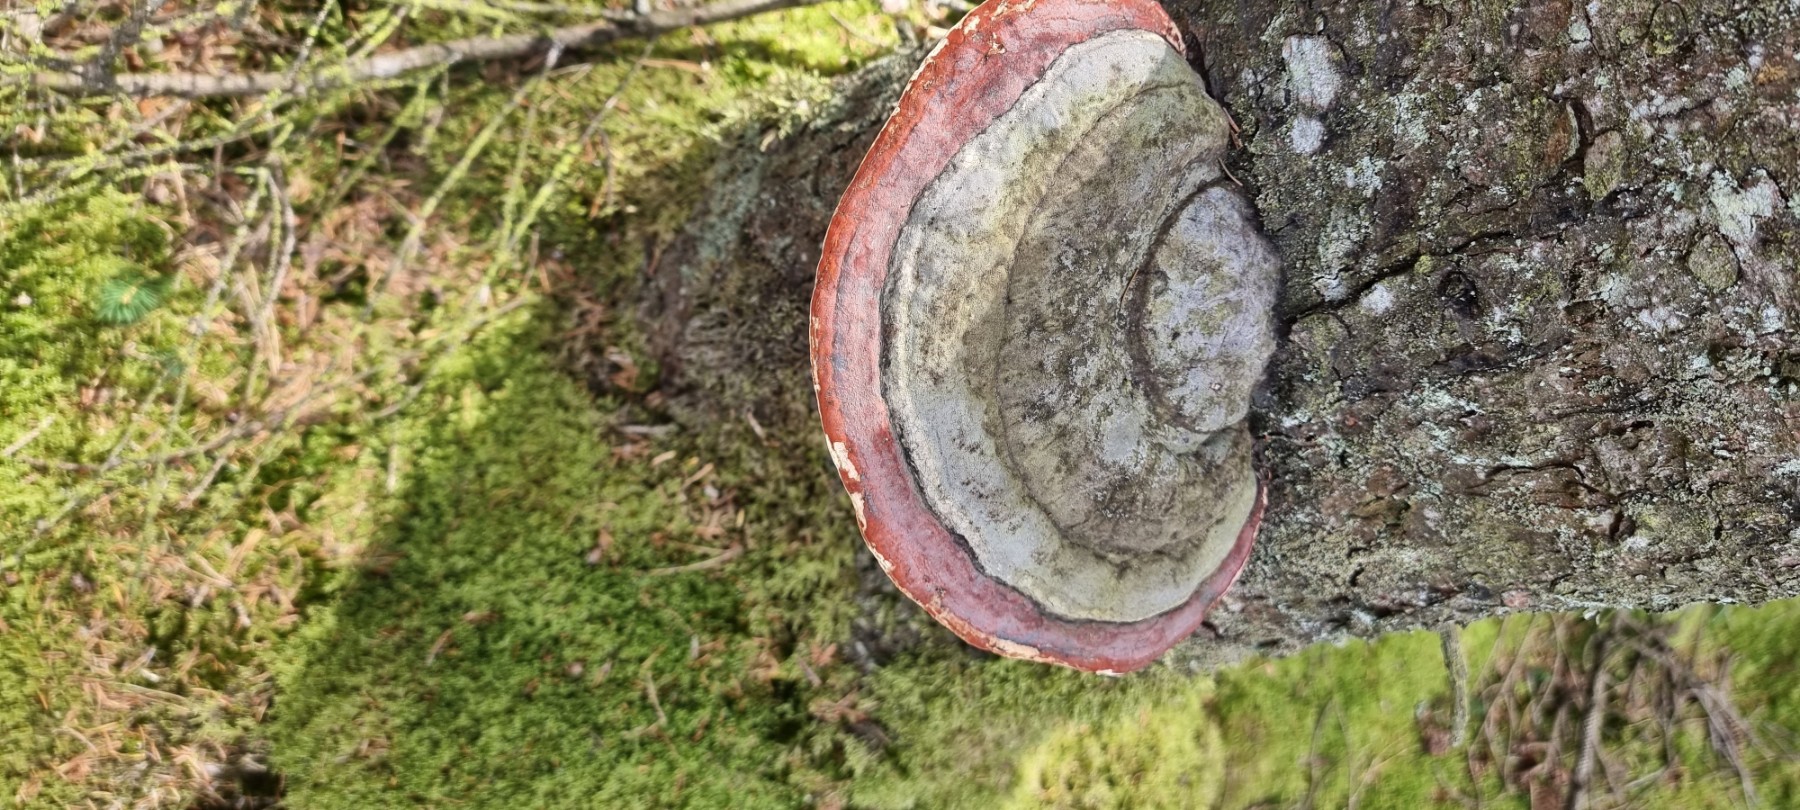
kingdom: Fungi
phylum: Basidiomycota
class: Agaricomycetes
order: Polyporales
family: Fomitopsidaceae
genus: Fomitopsis
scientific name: Fomitopsis pinicola
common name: randbæltet hovporesvamp
